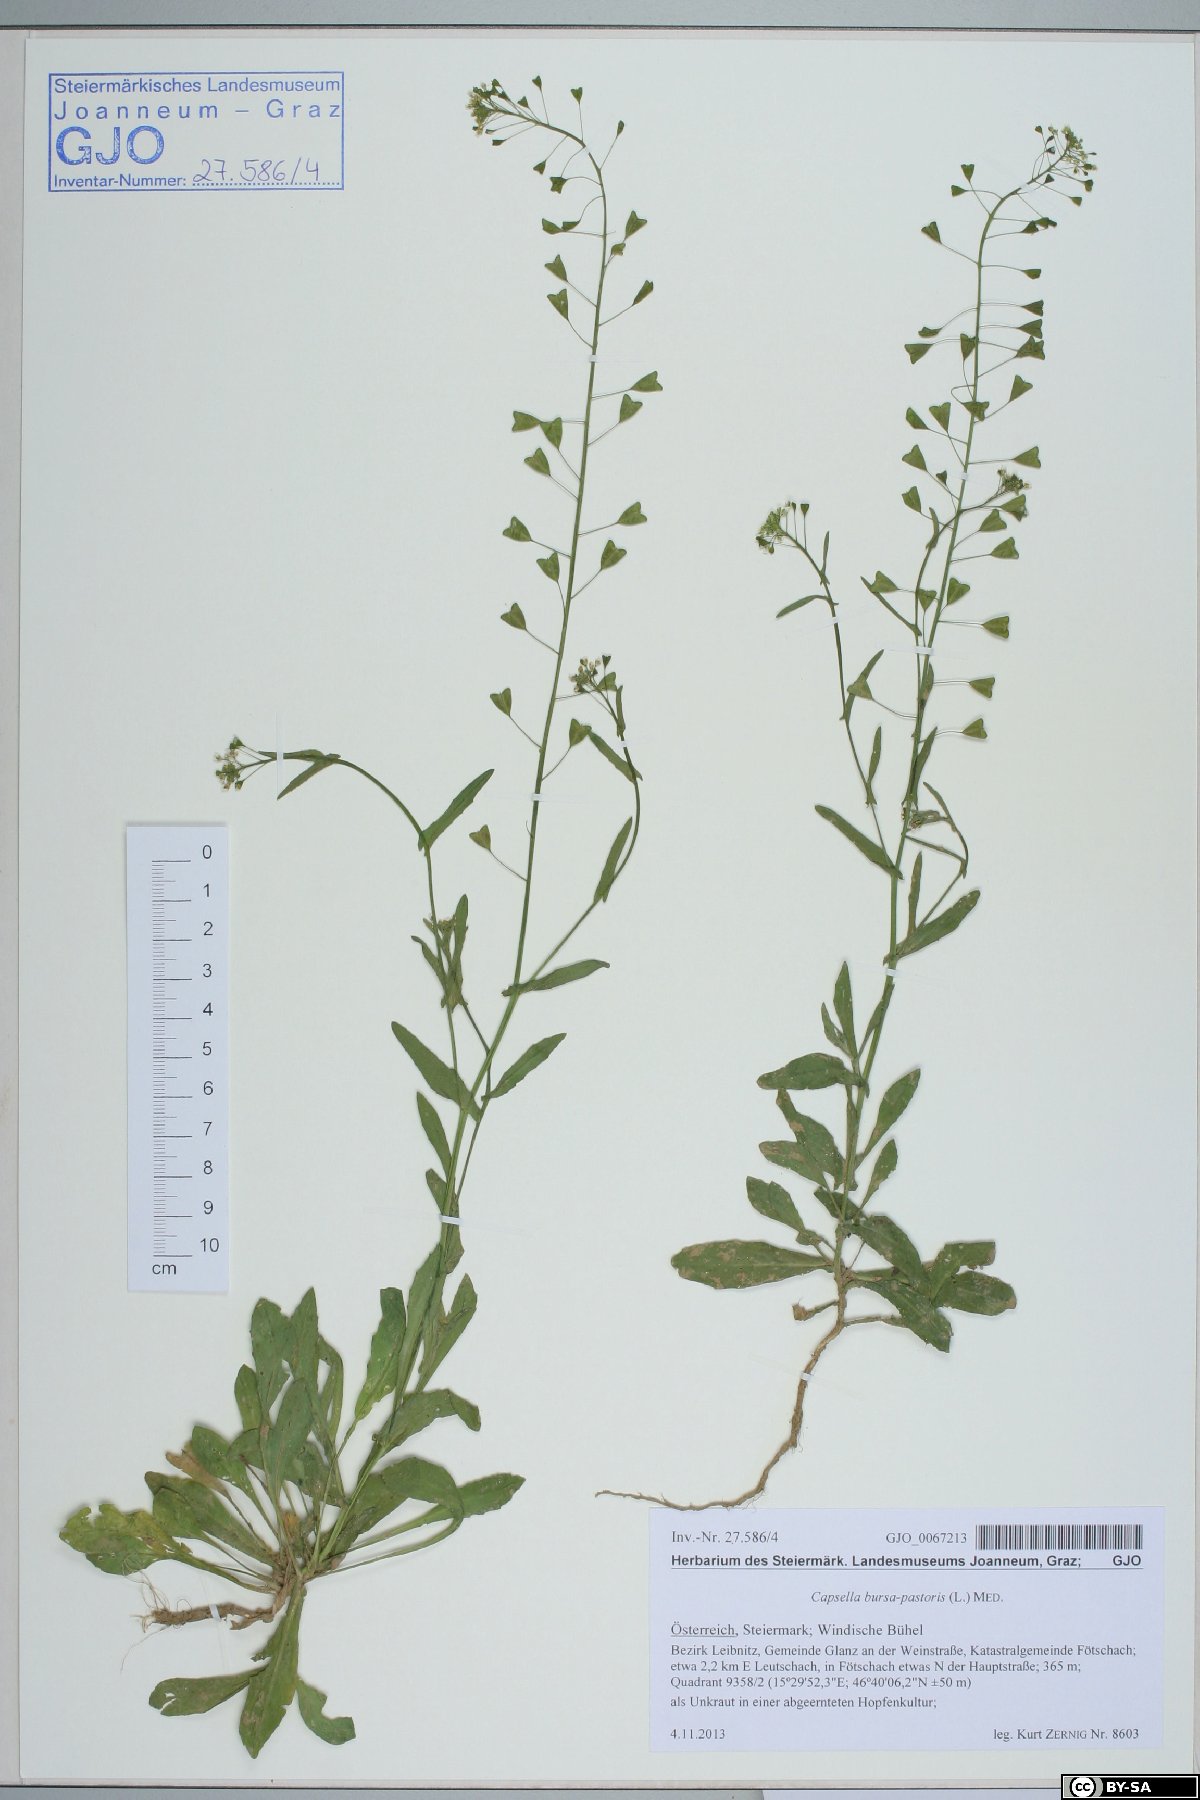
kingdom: Plantae
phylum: Tracheophyta
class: Magnoliopsida
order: Brassicales
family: Brassicaceae
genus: Capsella
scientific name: Capsella bursa-pastoris
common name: Shepherd's purse
